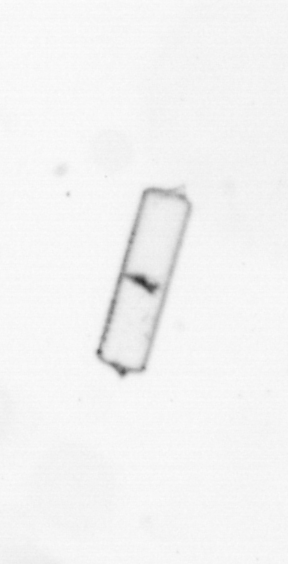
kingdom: Chromista
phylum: Ochrophyta
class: Bacillariophyceae
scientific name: Bacillariophyceae
